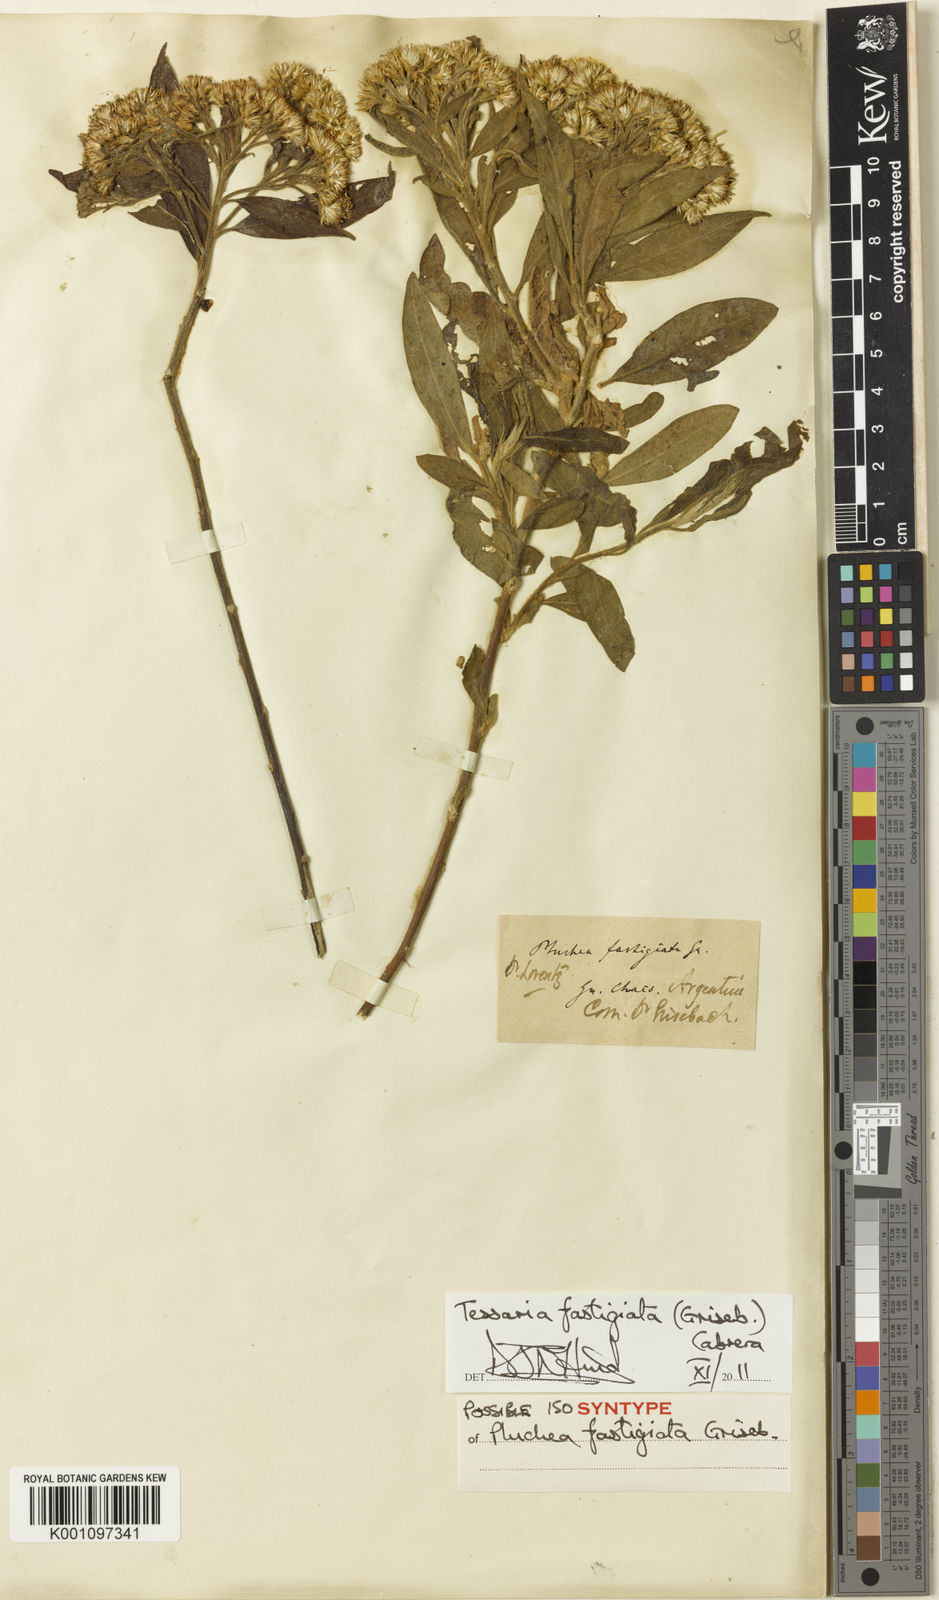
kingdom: Plantae
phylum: Tracheophyta
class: Magnoliopsida
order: Asterales
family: Asteraceae
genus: Tessaria
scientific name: Tessaria fastigiata
